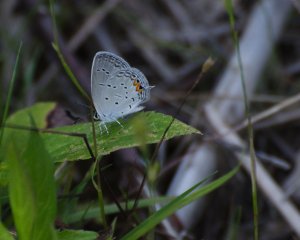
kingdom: Animalia
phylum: Arthropoda
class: Insecta
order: Lepidoptera
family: Lycaenidae
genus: Elkalyce
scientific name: Elkalyce comyntas
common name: Eastern Tailed-Blue
